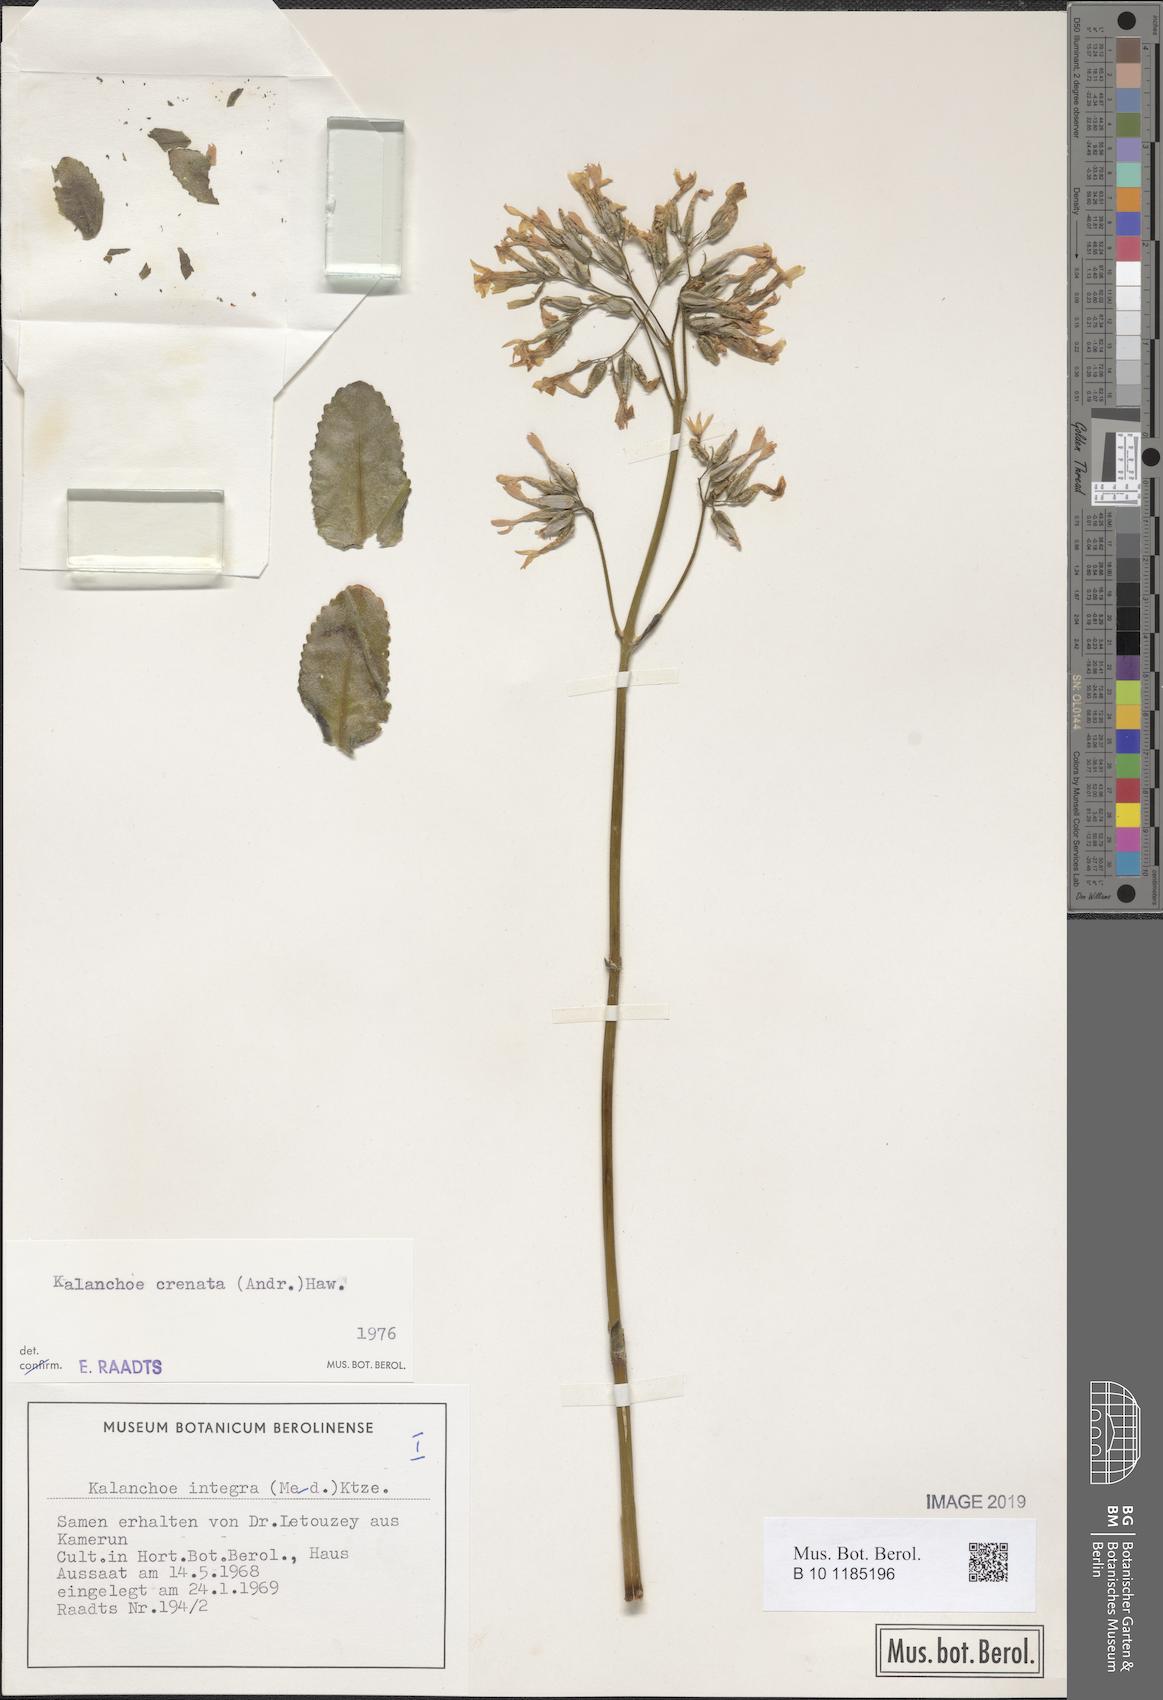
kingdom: Plantae
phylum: Tracheophyta
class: Magnoliopsida
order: Saxifragales
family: Crassulaceae
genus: Kalanchoe
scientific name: Kalanchoe crenata
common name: Neverdie
